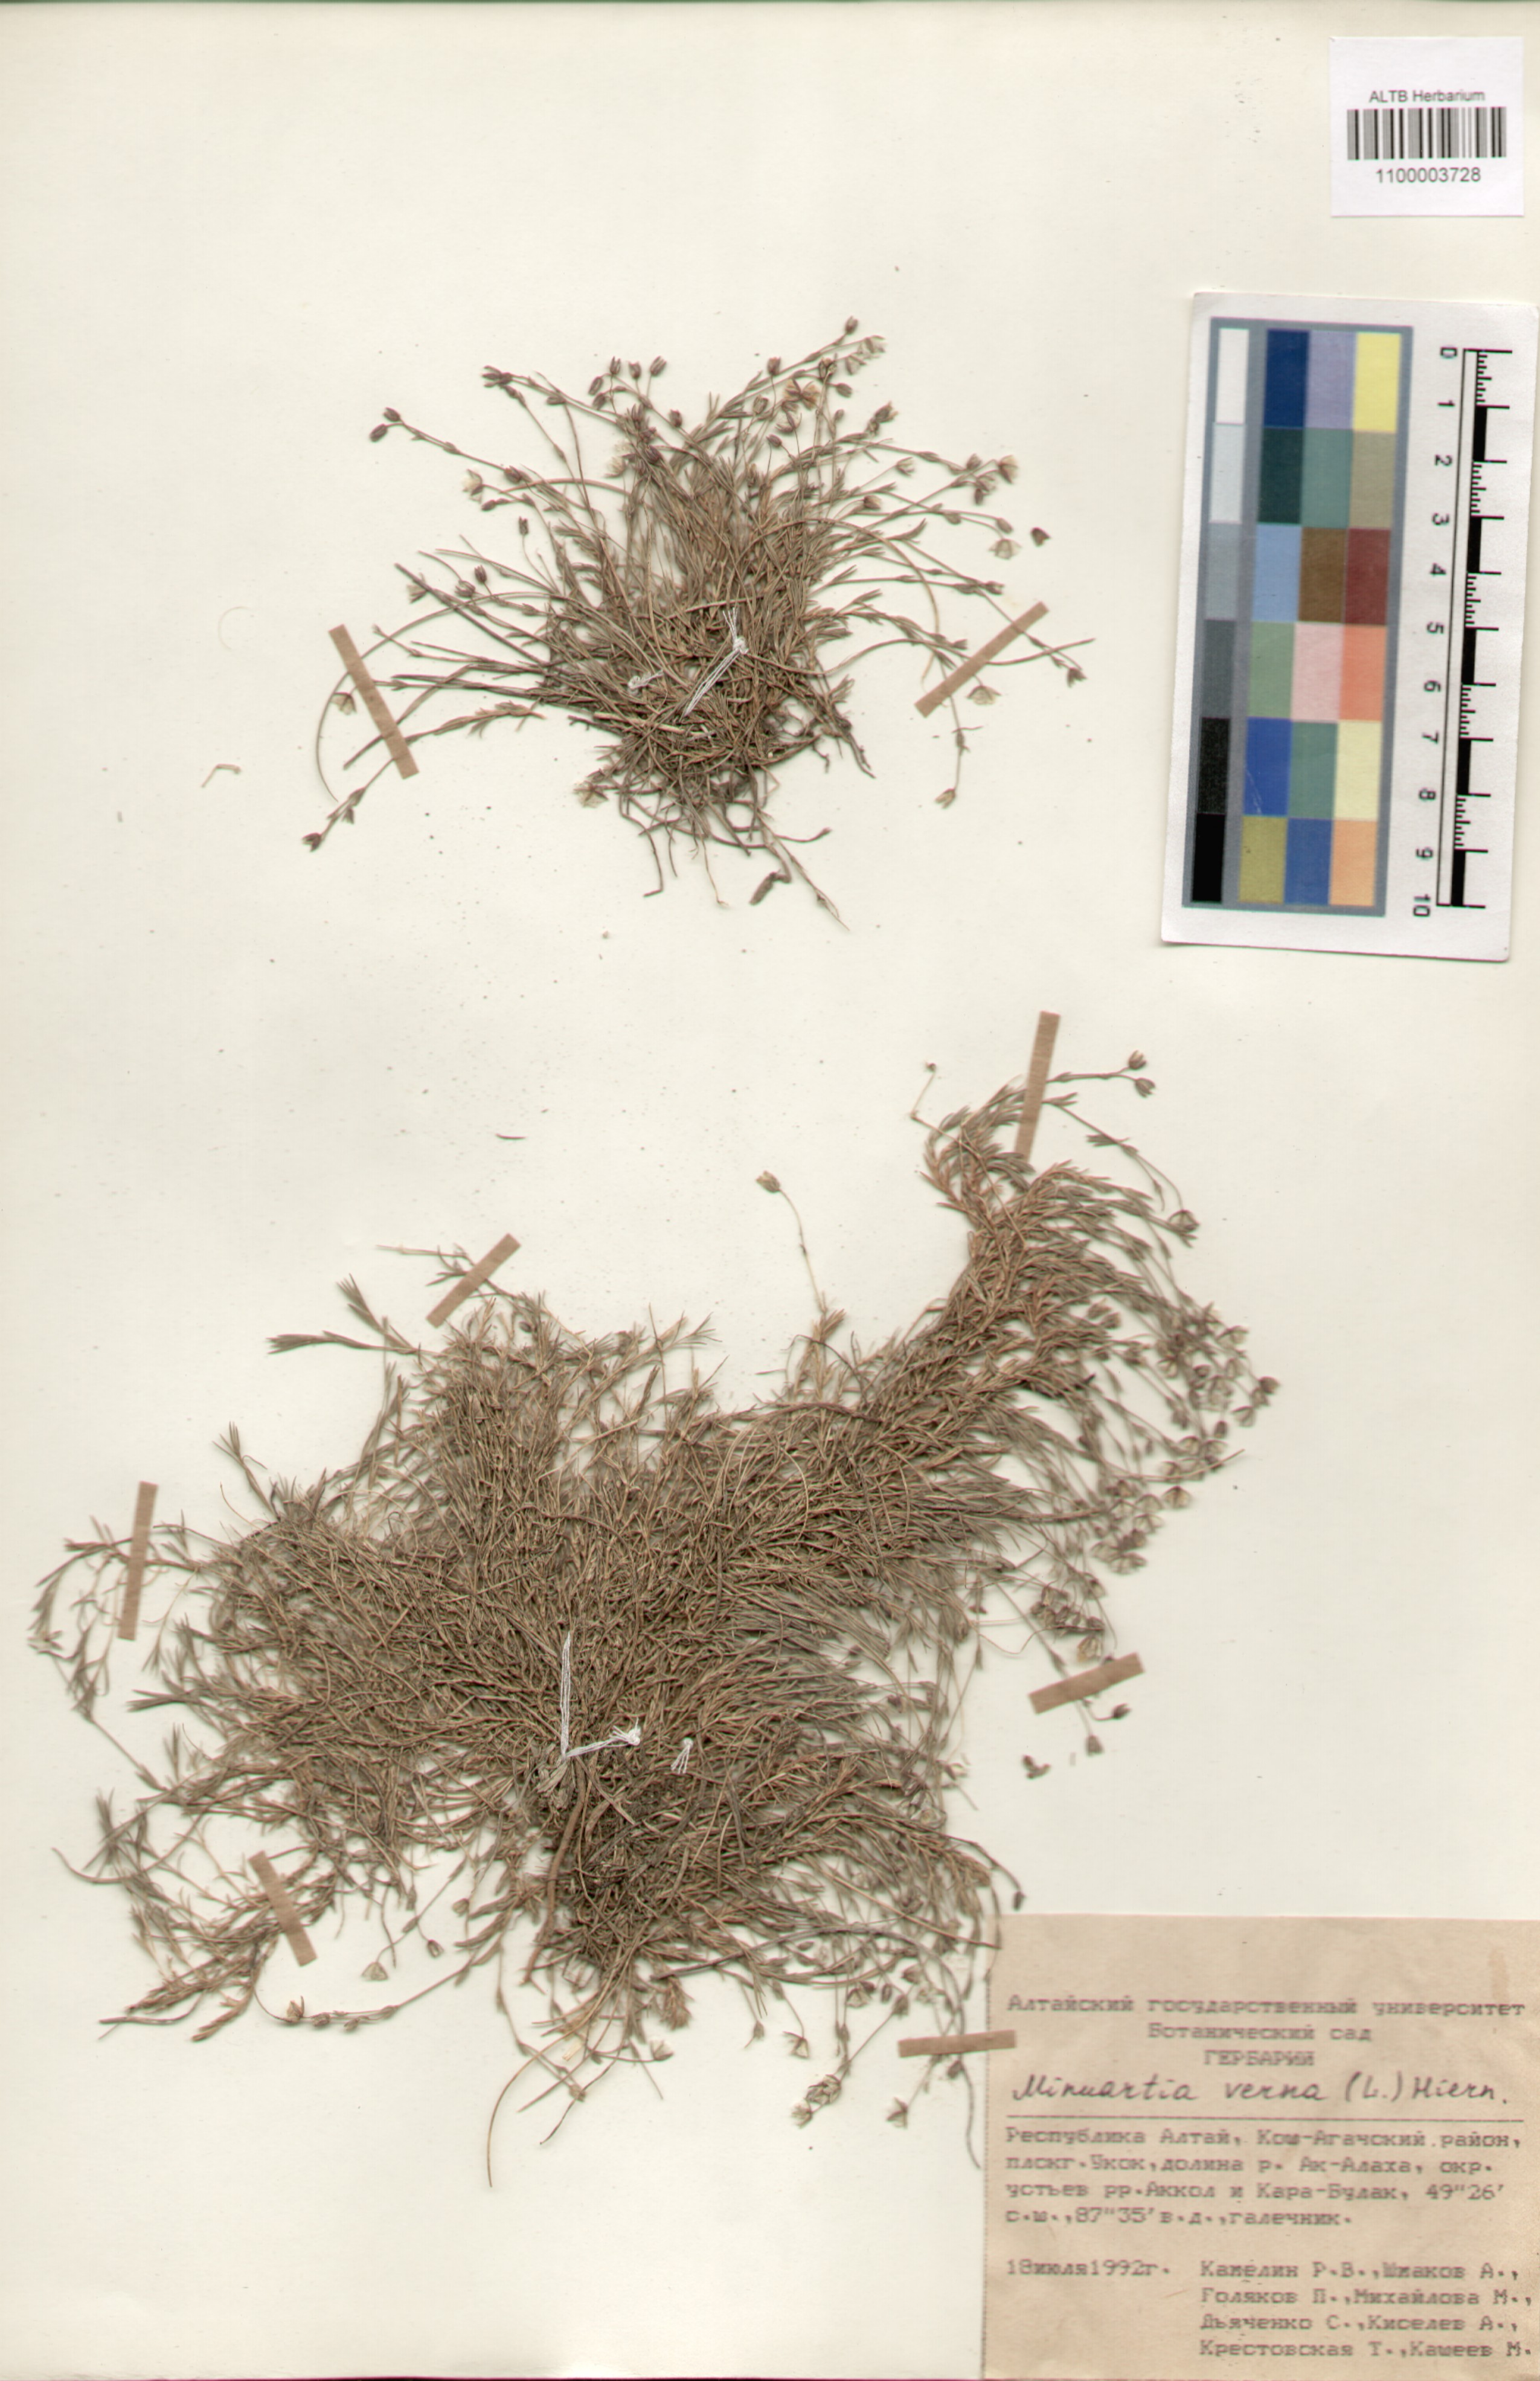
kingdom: Plantae
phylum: Tracheophyta
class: Magnoliopsida
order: Caryophyllales
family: Caryophyllaceae
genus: Sabulina
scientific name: Sabulina verna
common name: Spring sandwort
